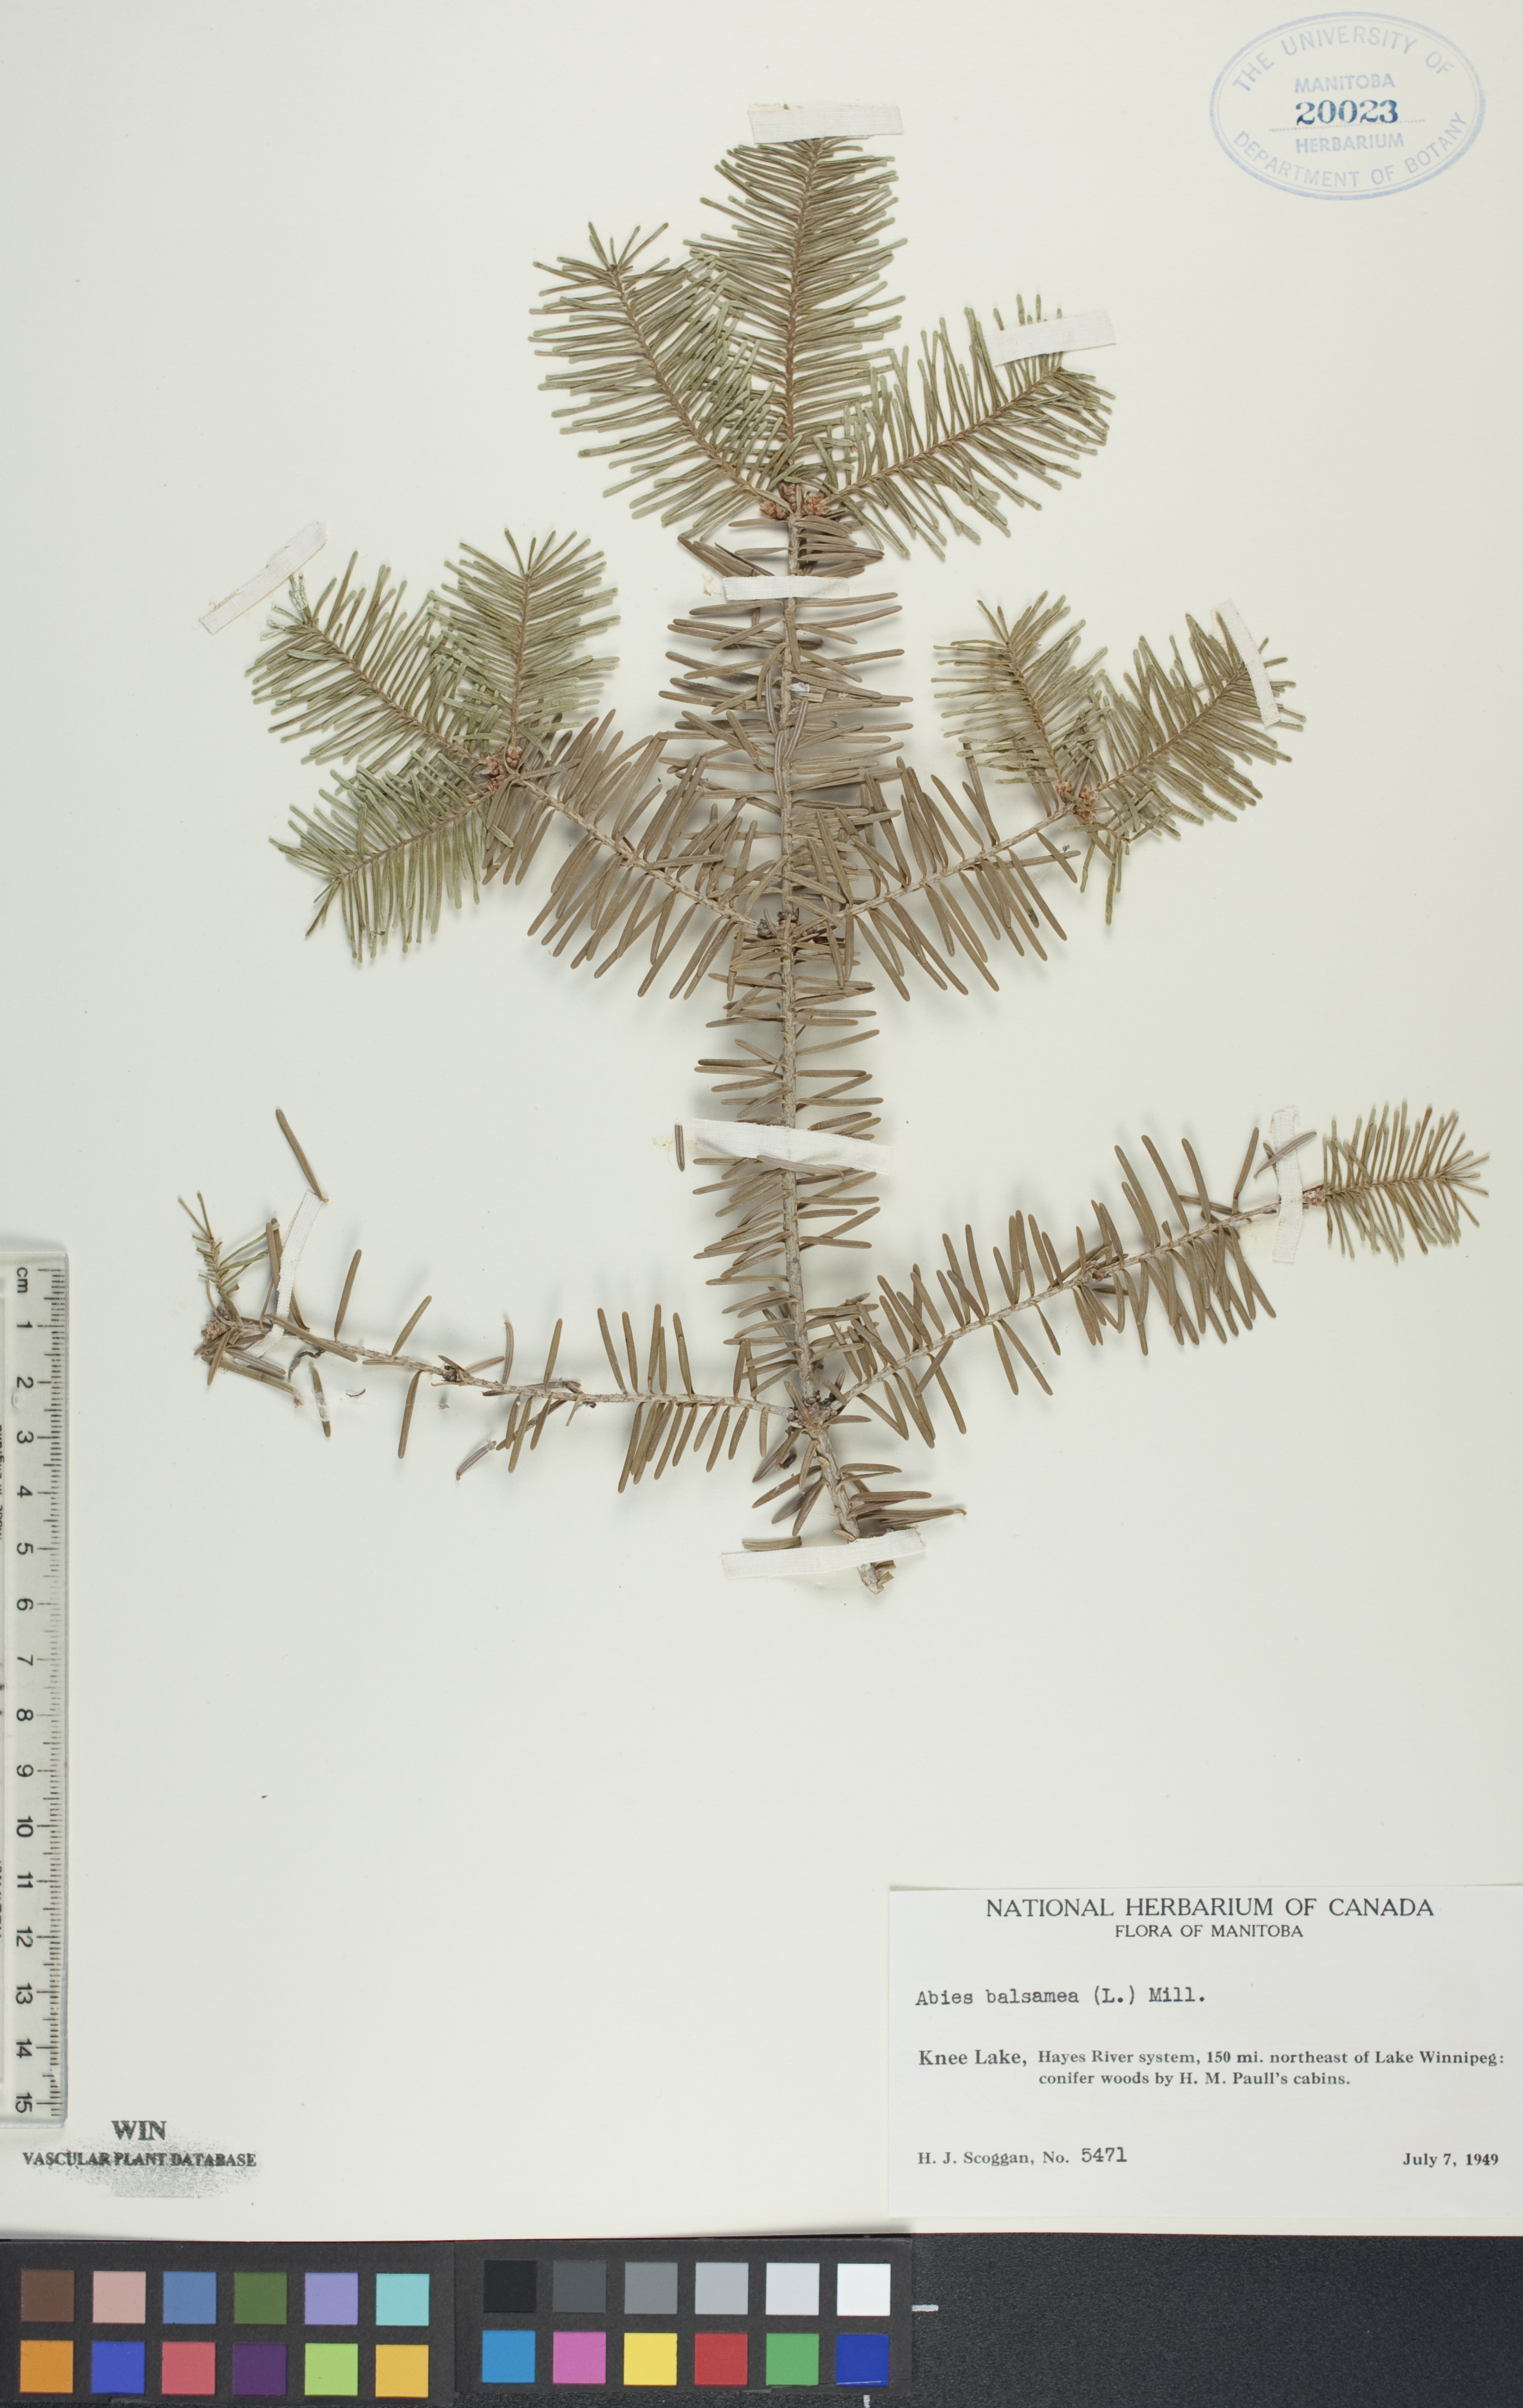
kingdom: Plantae
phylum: Tracheophyta
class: Pinopsida
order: Pinales
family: Pinaceae
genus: Abies
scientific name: Abies balsamea
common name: Balsam fir
